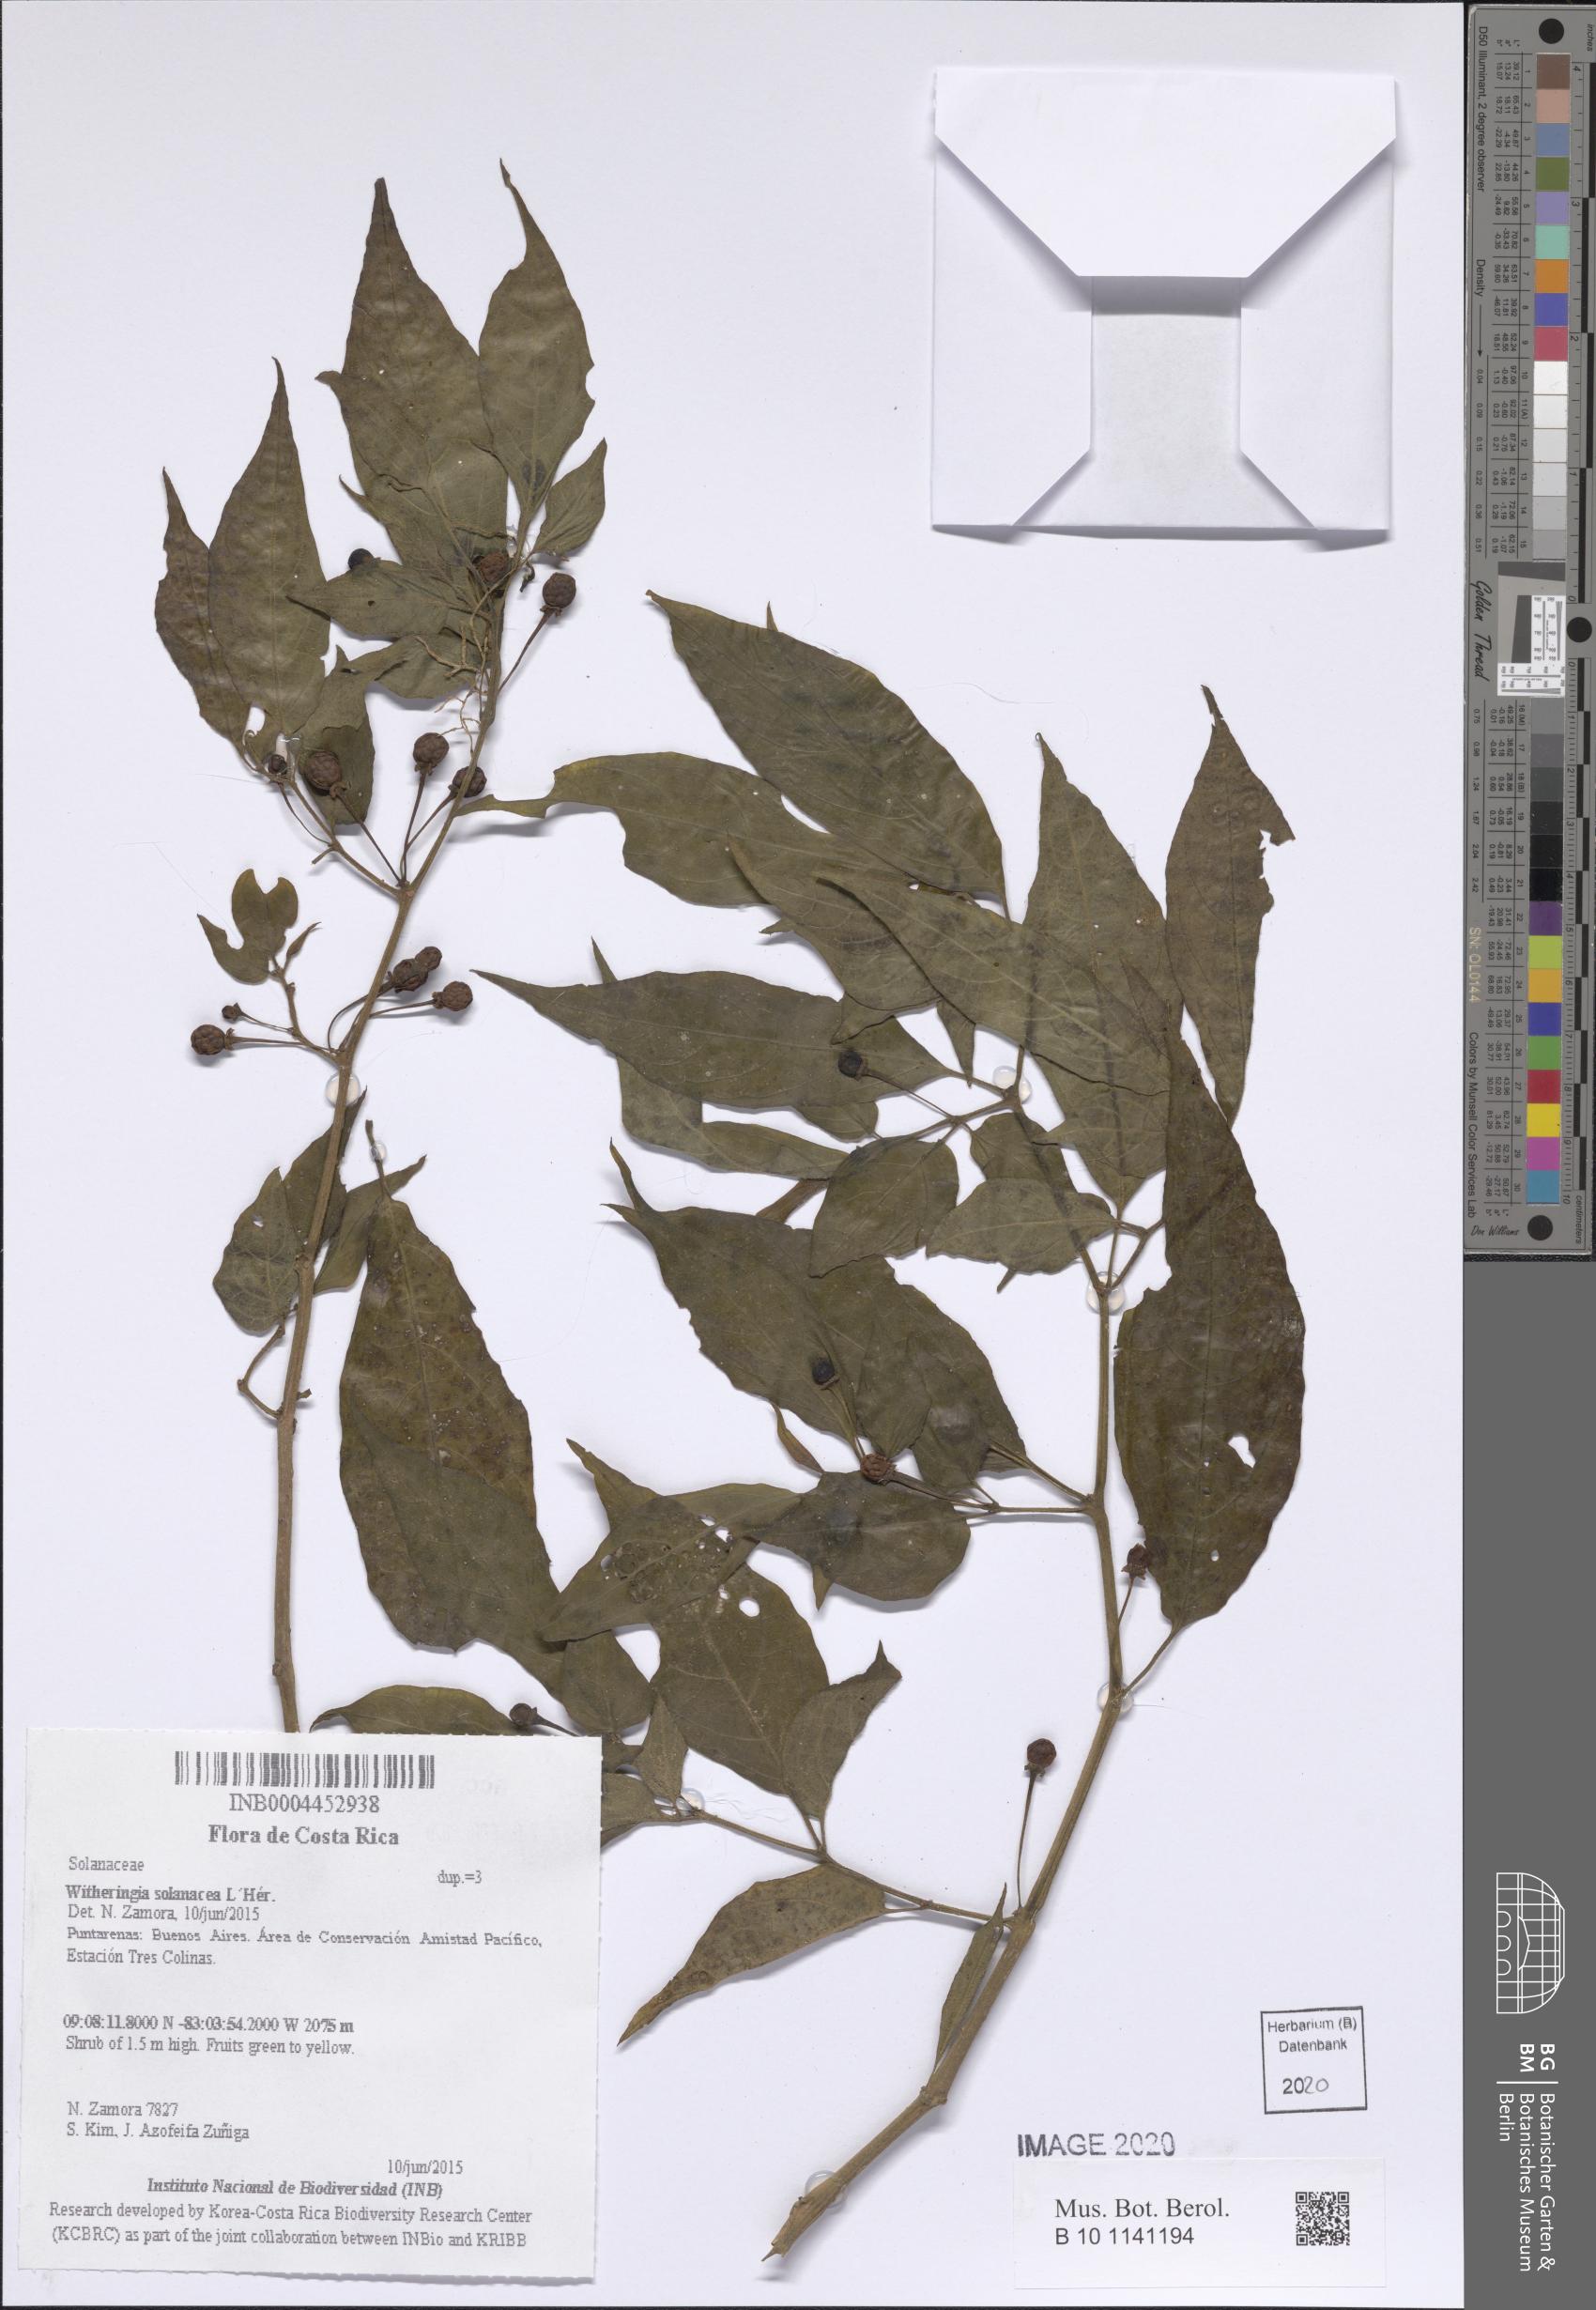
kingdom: Plantae
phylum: Tracheophyta
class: Magnoliopsida
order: Solanales
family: Solanaceae
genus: Witheringia
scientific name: Witheringia solanacea
